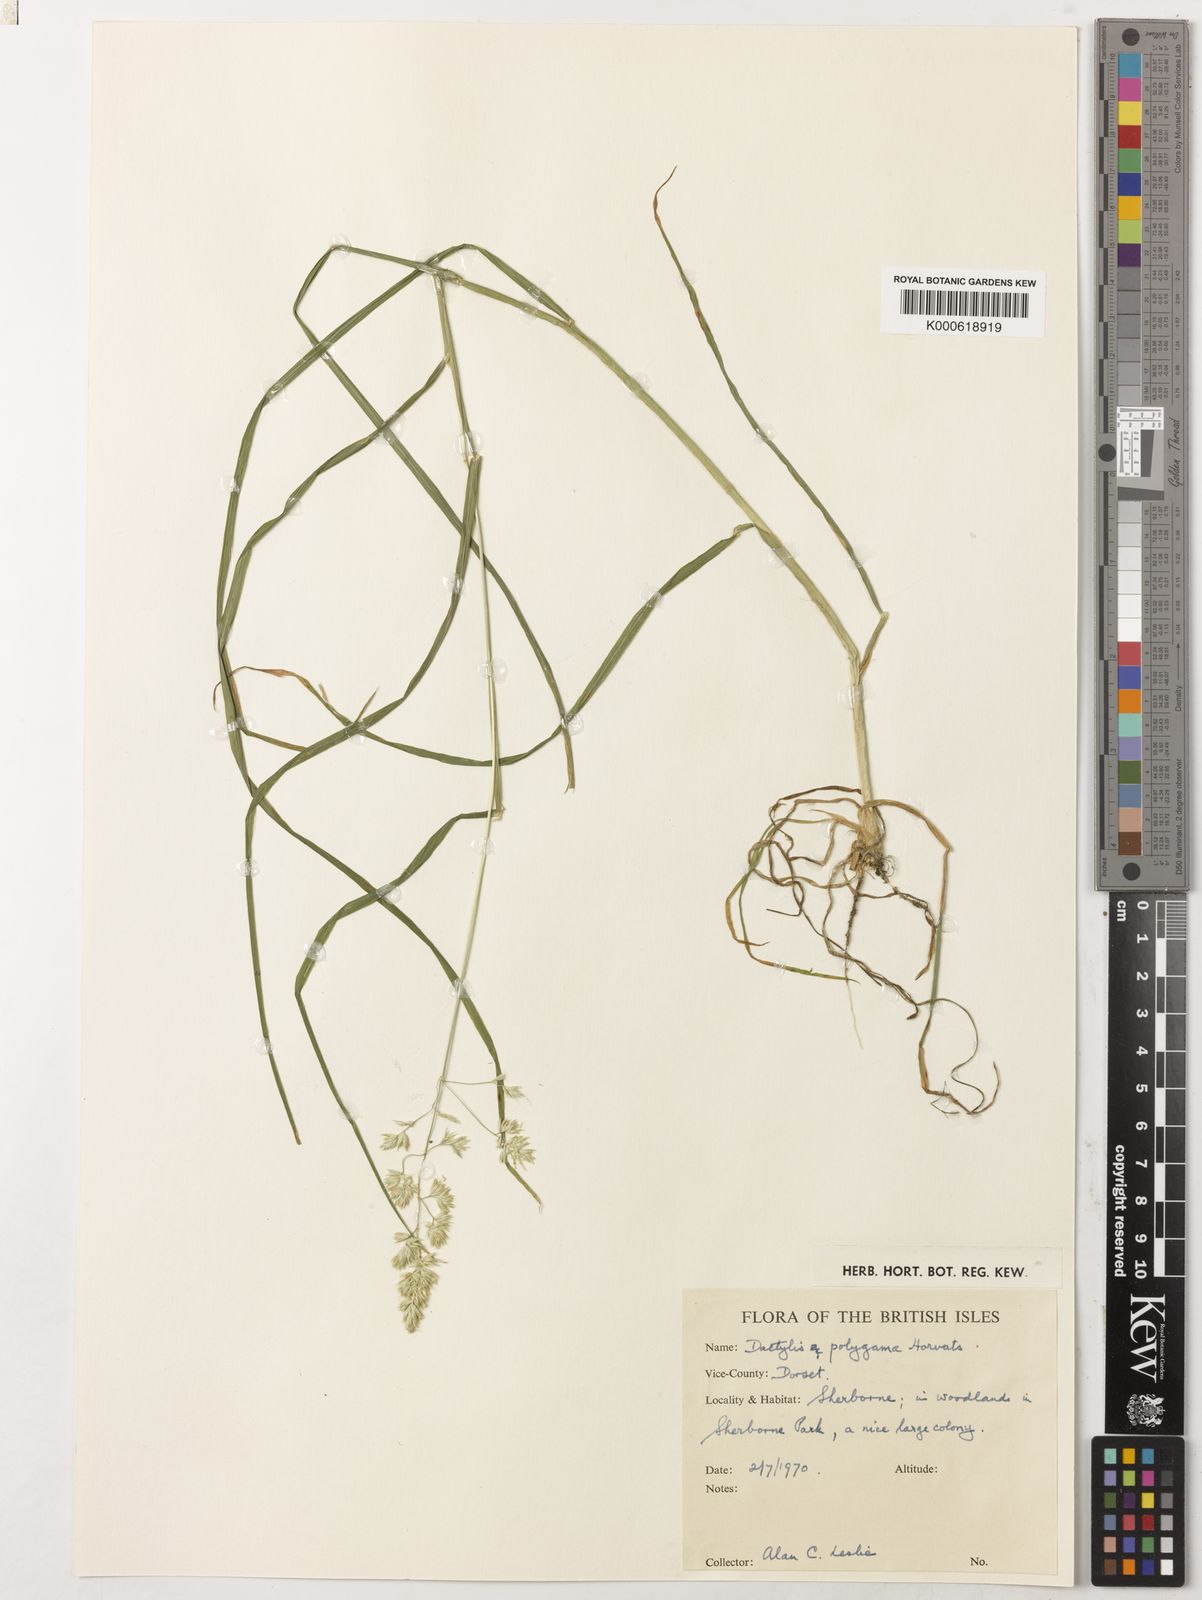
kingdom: Plantae
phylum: Tracheophyta
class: Liliopsida
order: Poales
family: Poaceae
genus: Dactylis
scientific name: Dactylis glomerata
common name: Orchardgrass
